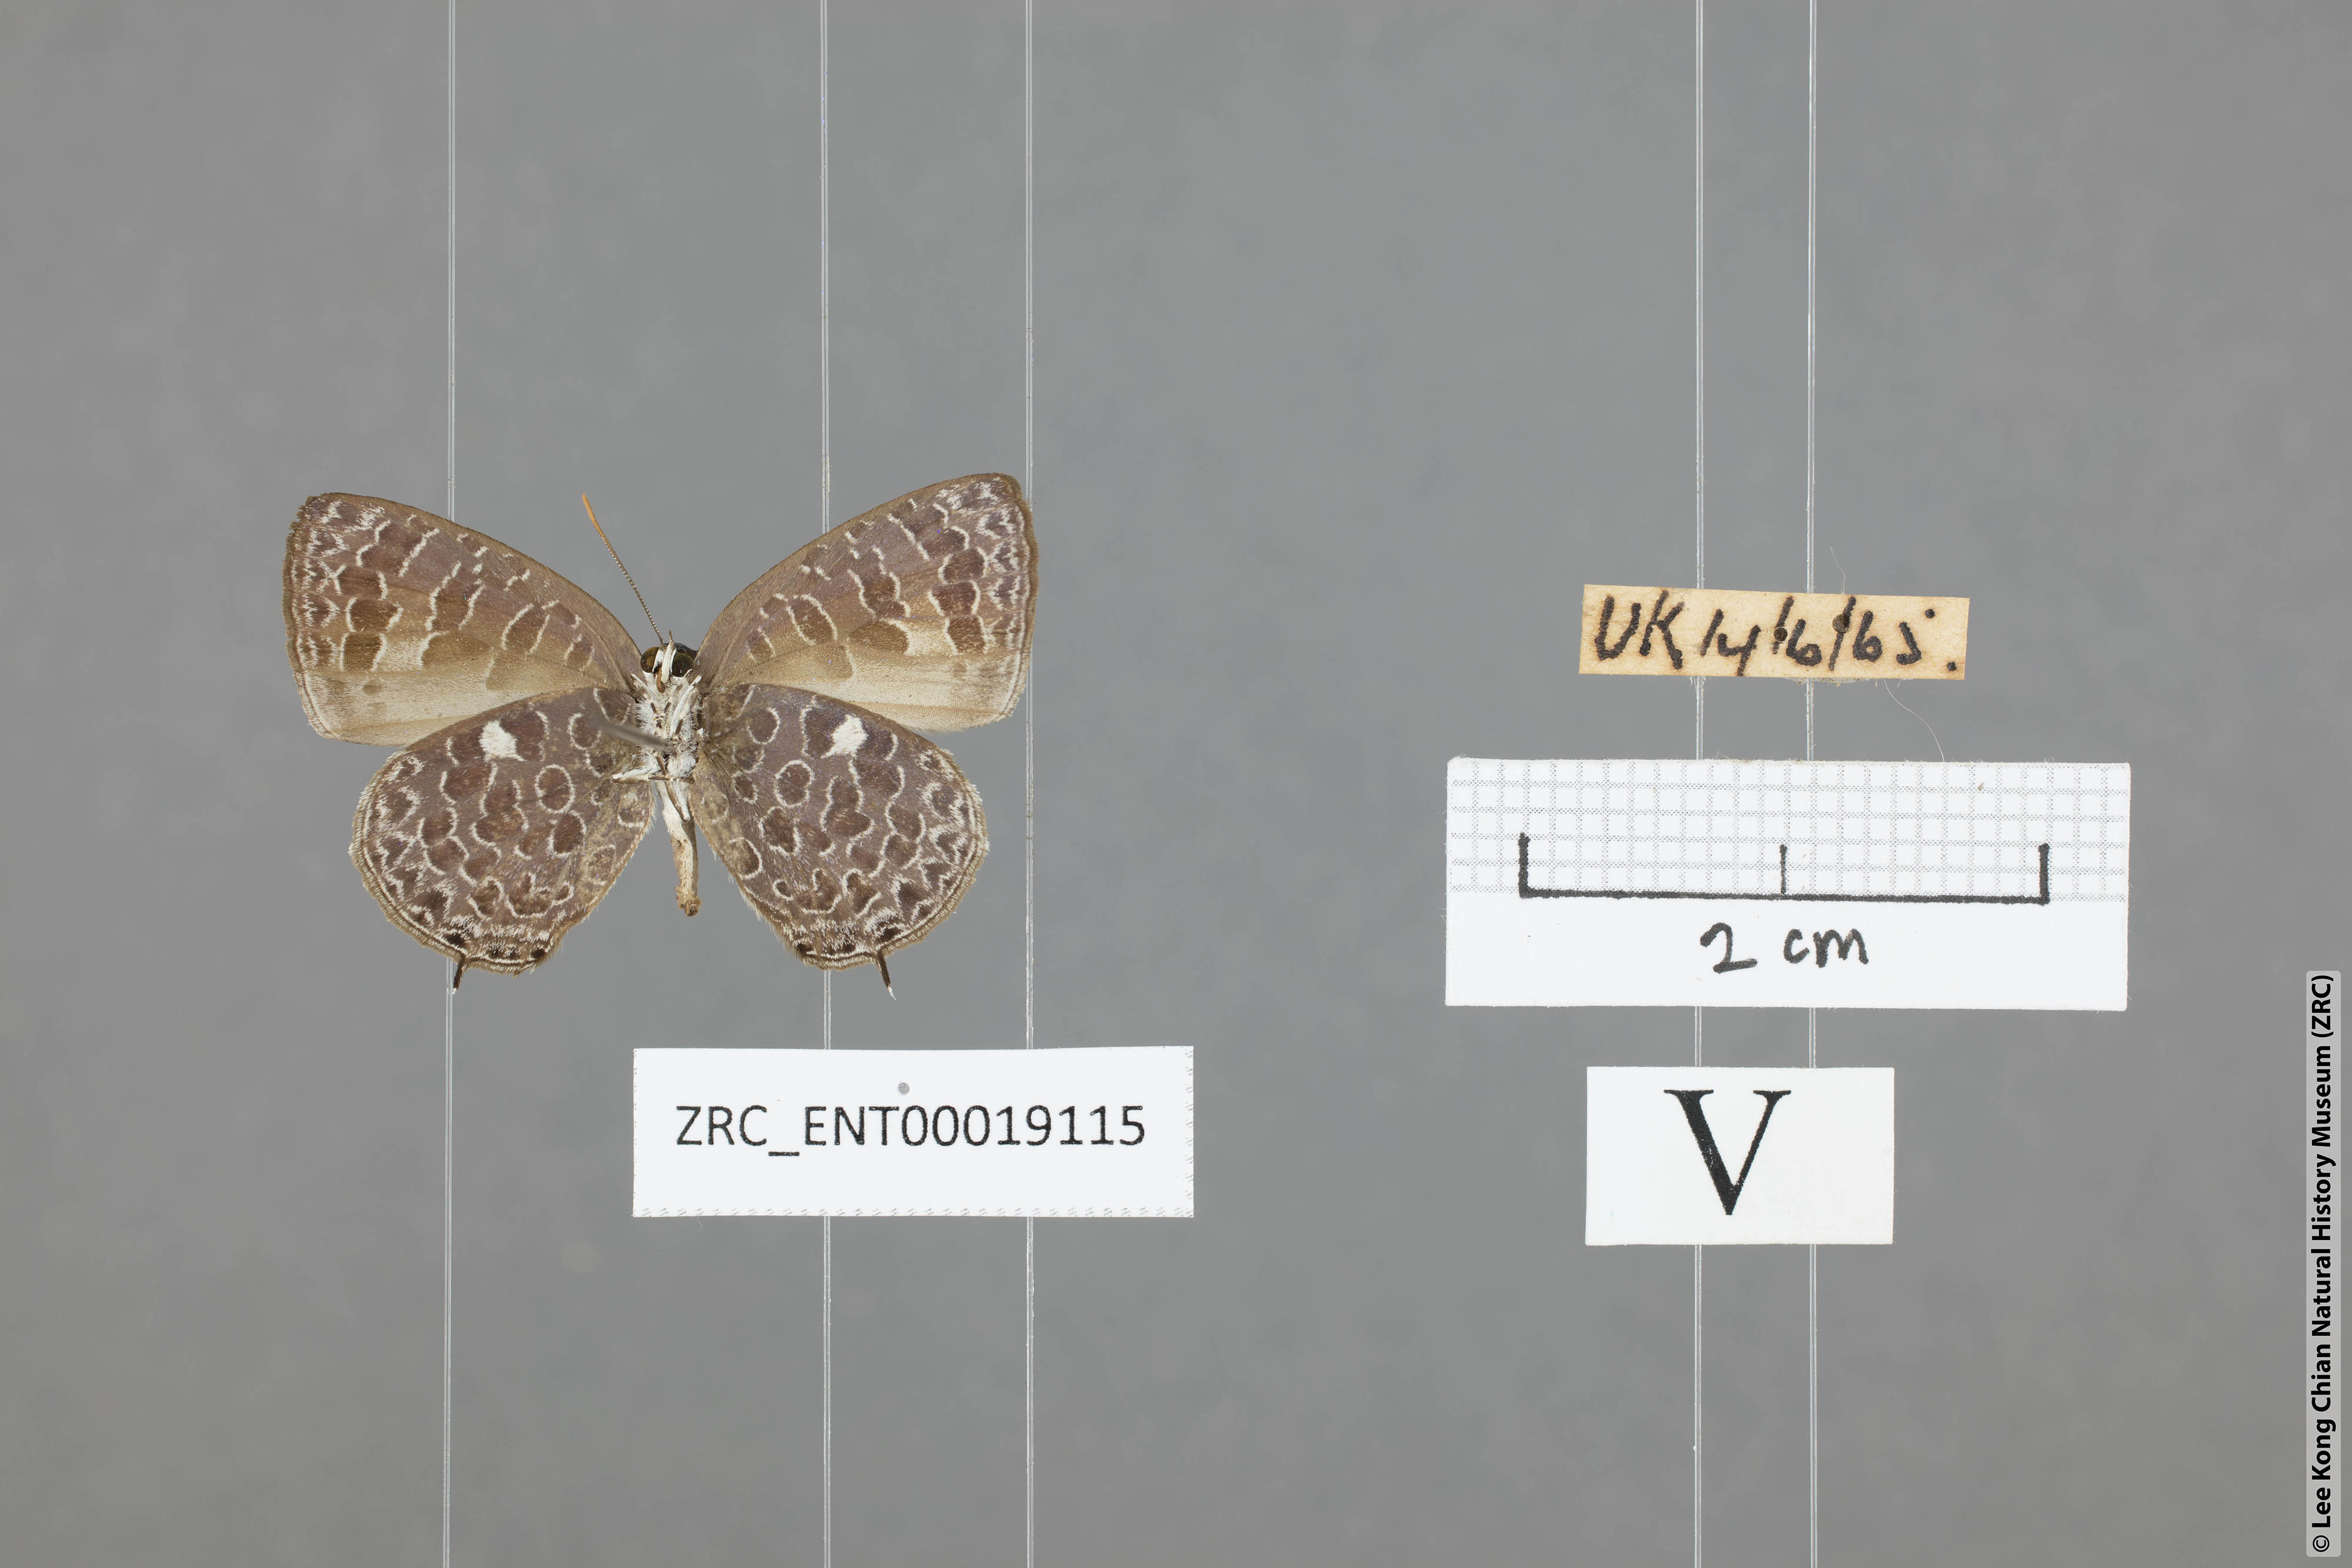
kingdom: Animalia
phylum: Arthropoda
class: Insecta
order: Lepidoptera
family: Lycaenidae
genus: Arhopala
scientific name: Arhopala ammonides
